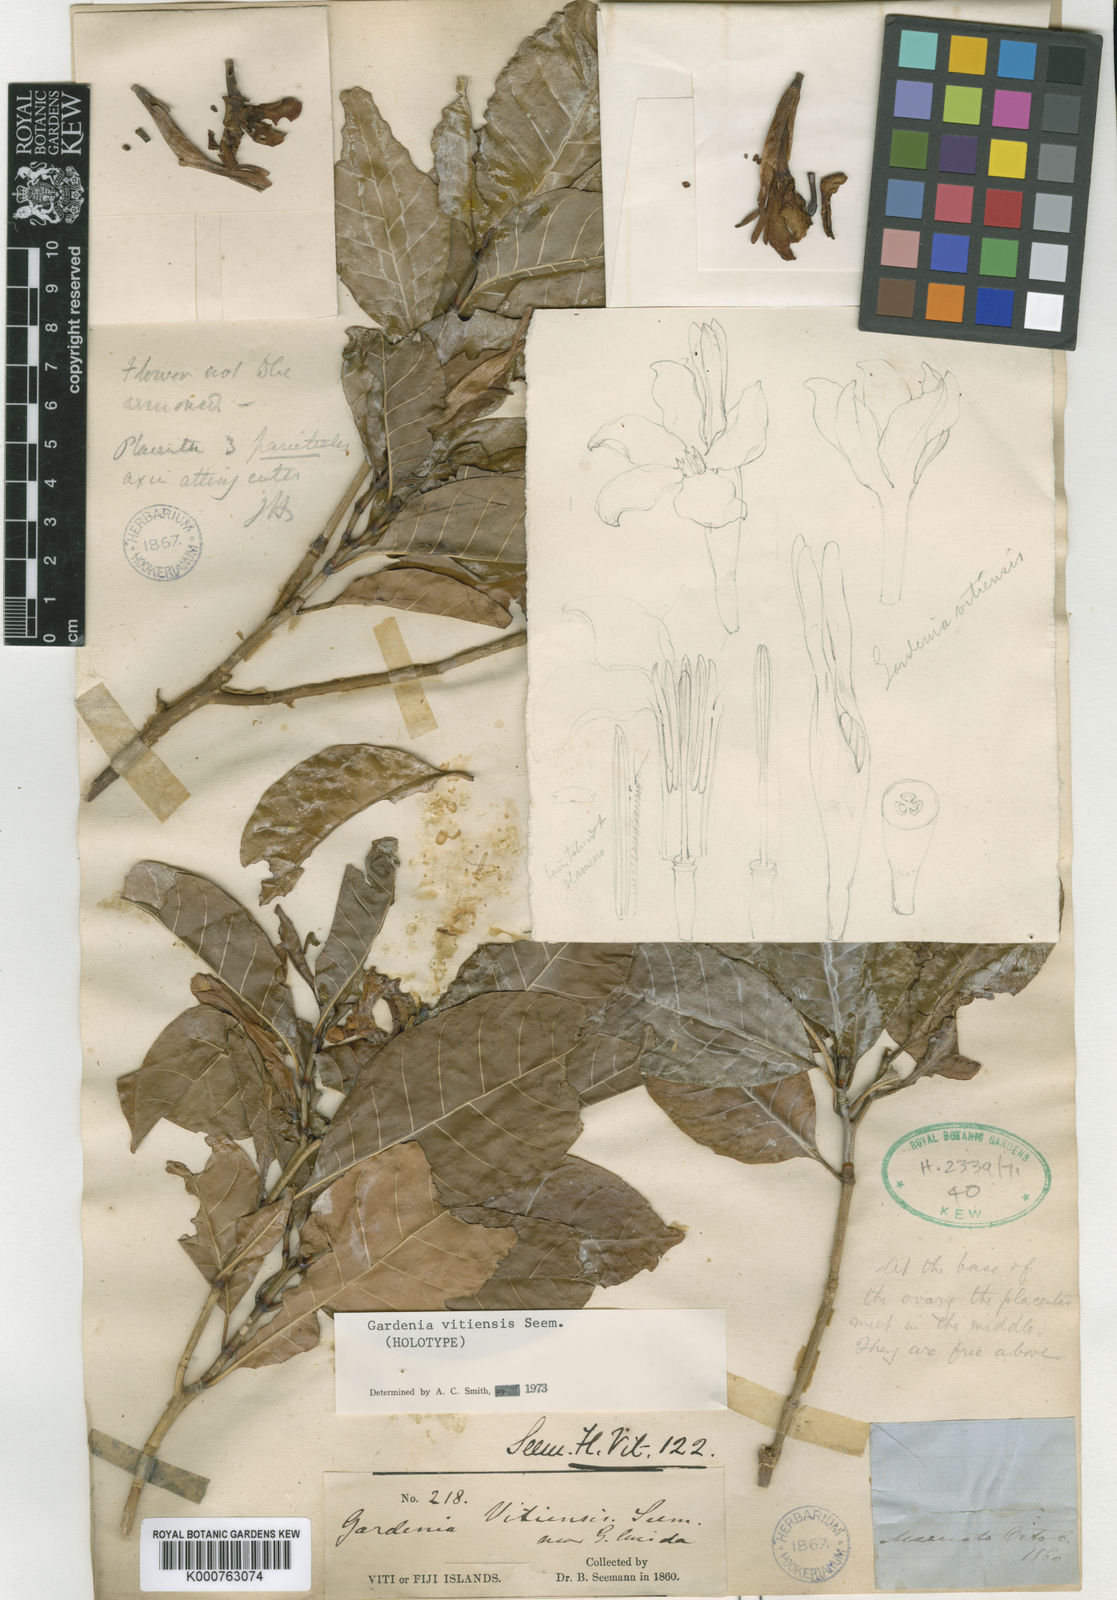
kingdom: Plantae
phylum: Tracheophyta
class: Magnoliopsida
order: Gentianales
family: Rubiaceae
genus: Gardenia
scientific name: Gardenia vitiensis
